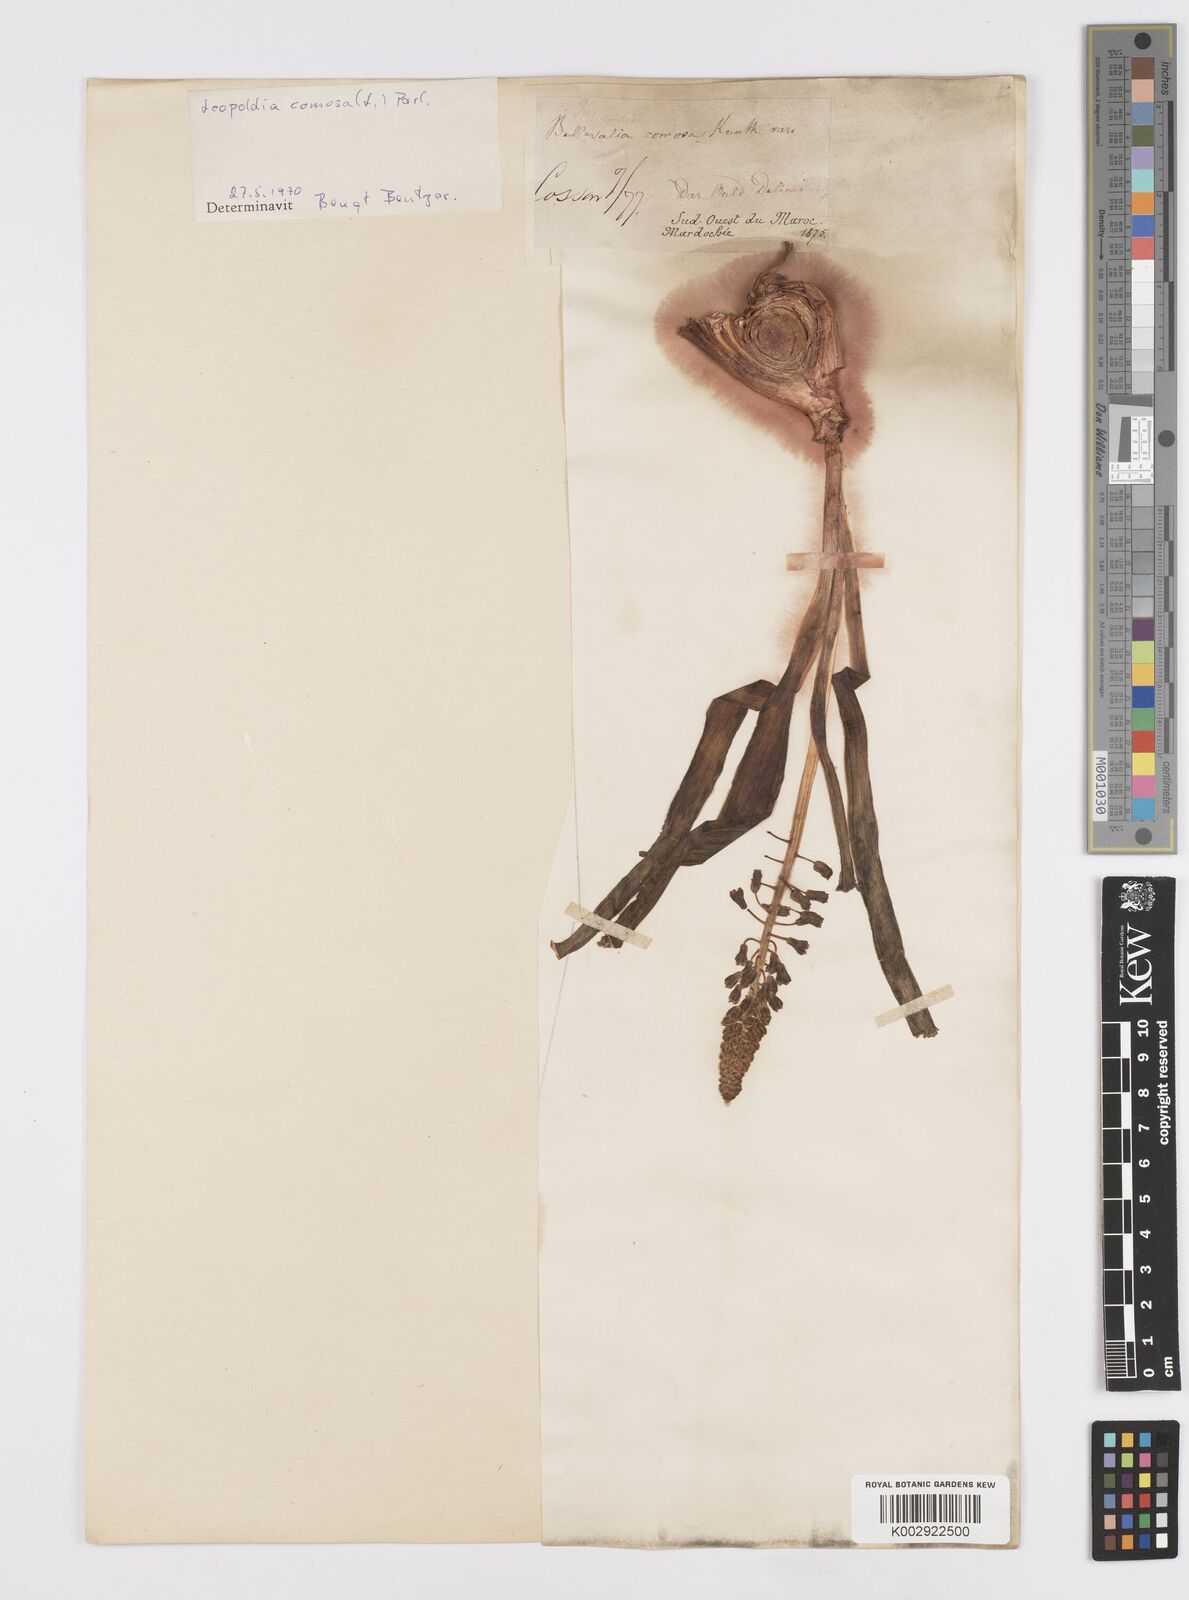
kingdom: Plantae
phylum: Tracheophyta
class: Liliopsida
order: Asparagales
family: Asparagaceae
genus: Muscari
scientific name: Muscari comosum
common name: Tassel hyacinth
